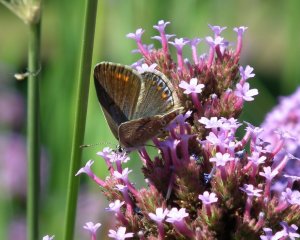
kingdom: Animalia
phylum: Arthropoda
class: Insecta
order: Lepidoptera
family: Lycaenidae
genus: Polyommatus
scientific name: Polyommatus icarus
